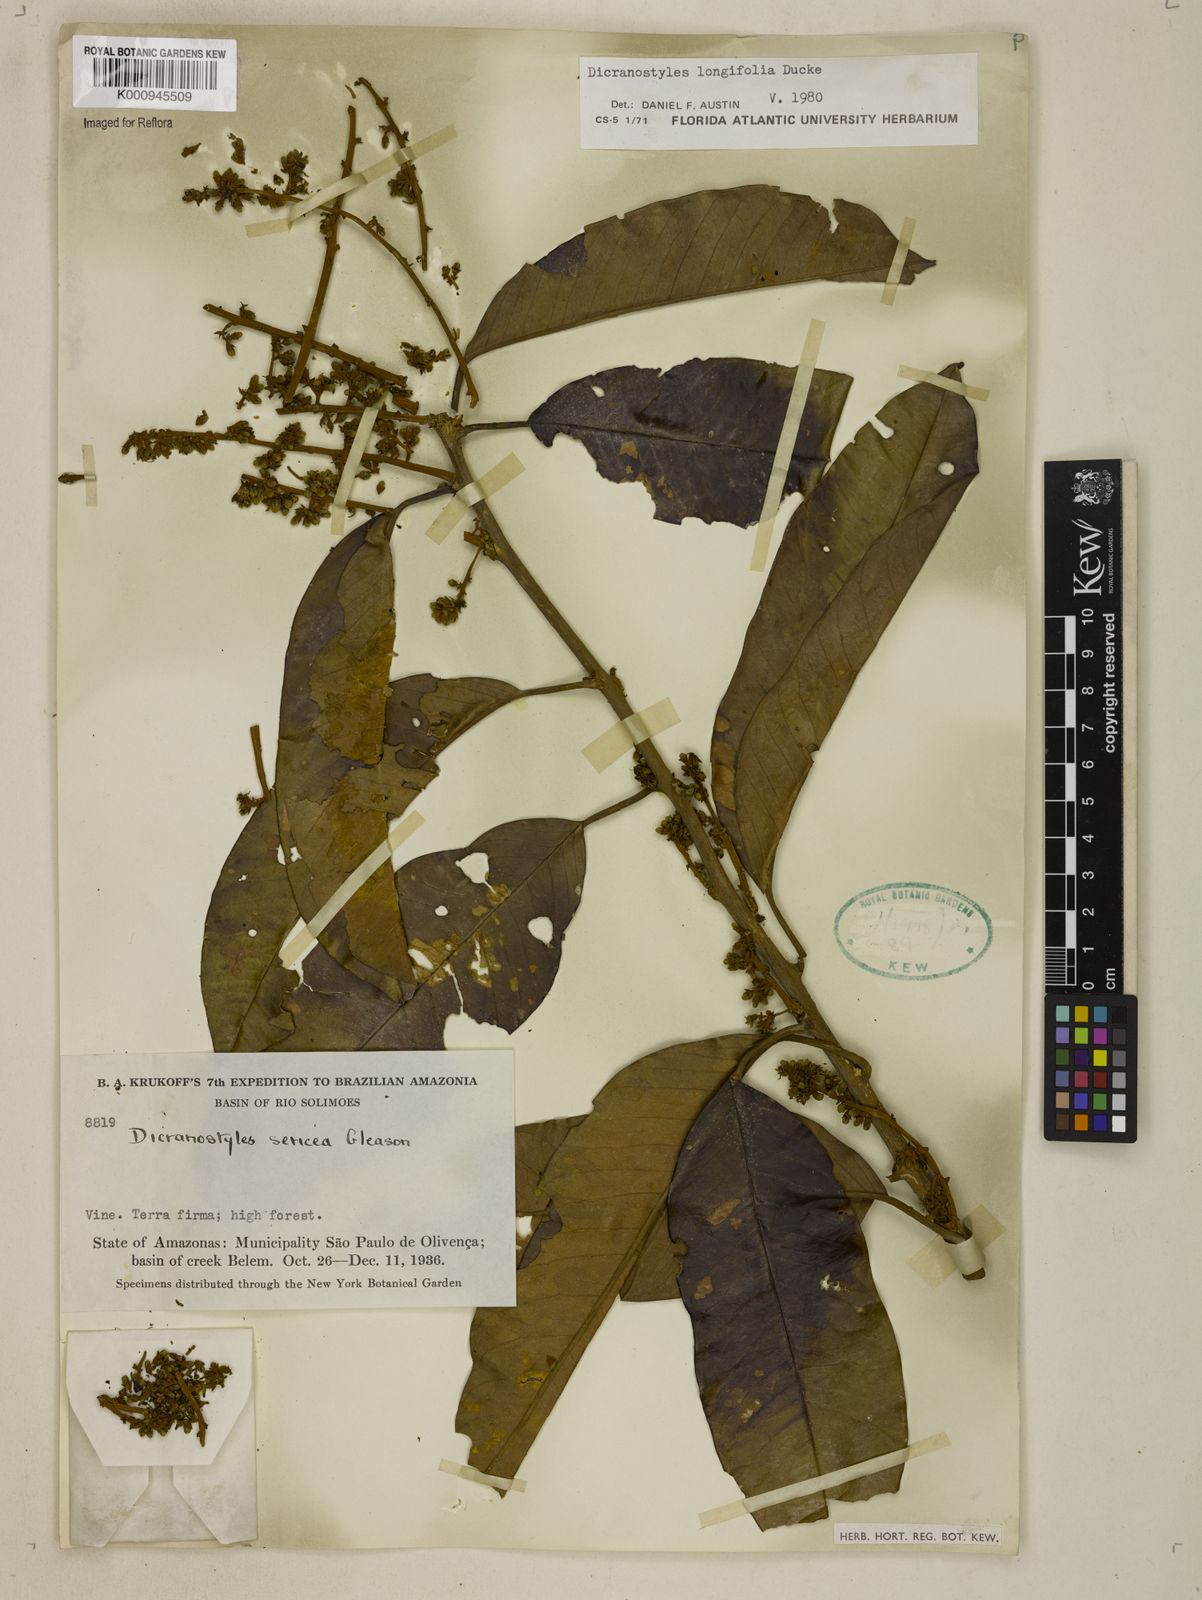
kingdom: Plantae
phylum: Tracheophyta
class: Magnoliopsida
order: Solanales
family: Convolvulaceae
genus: Dicranostyles
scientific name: Dicranostyles longifolia
